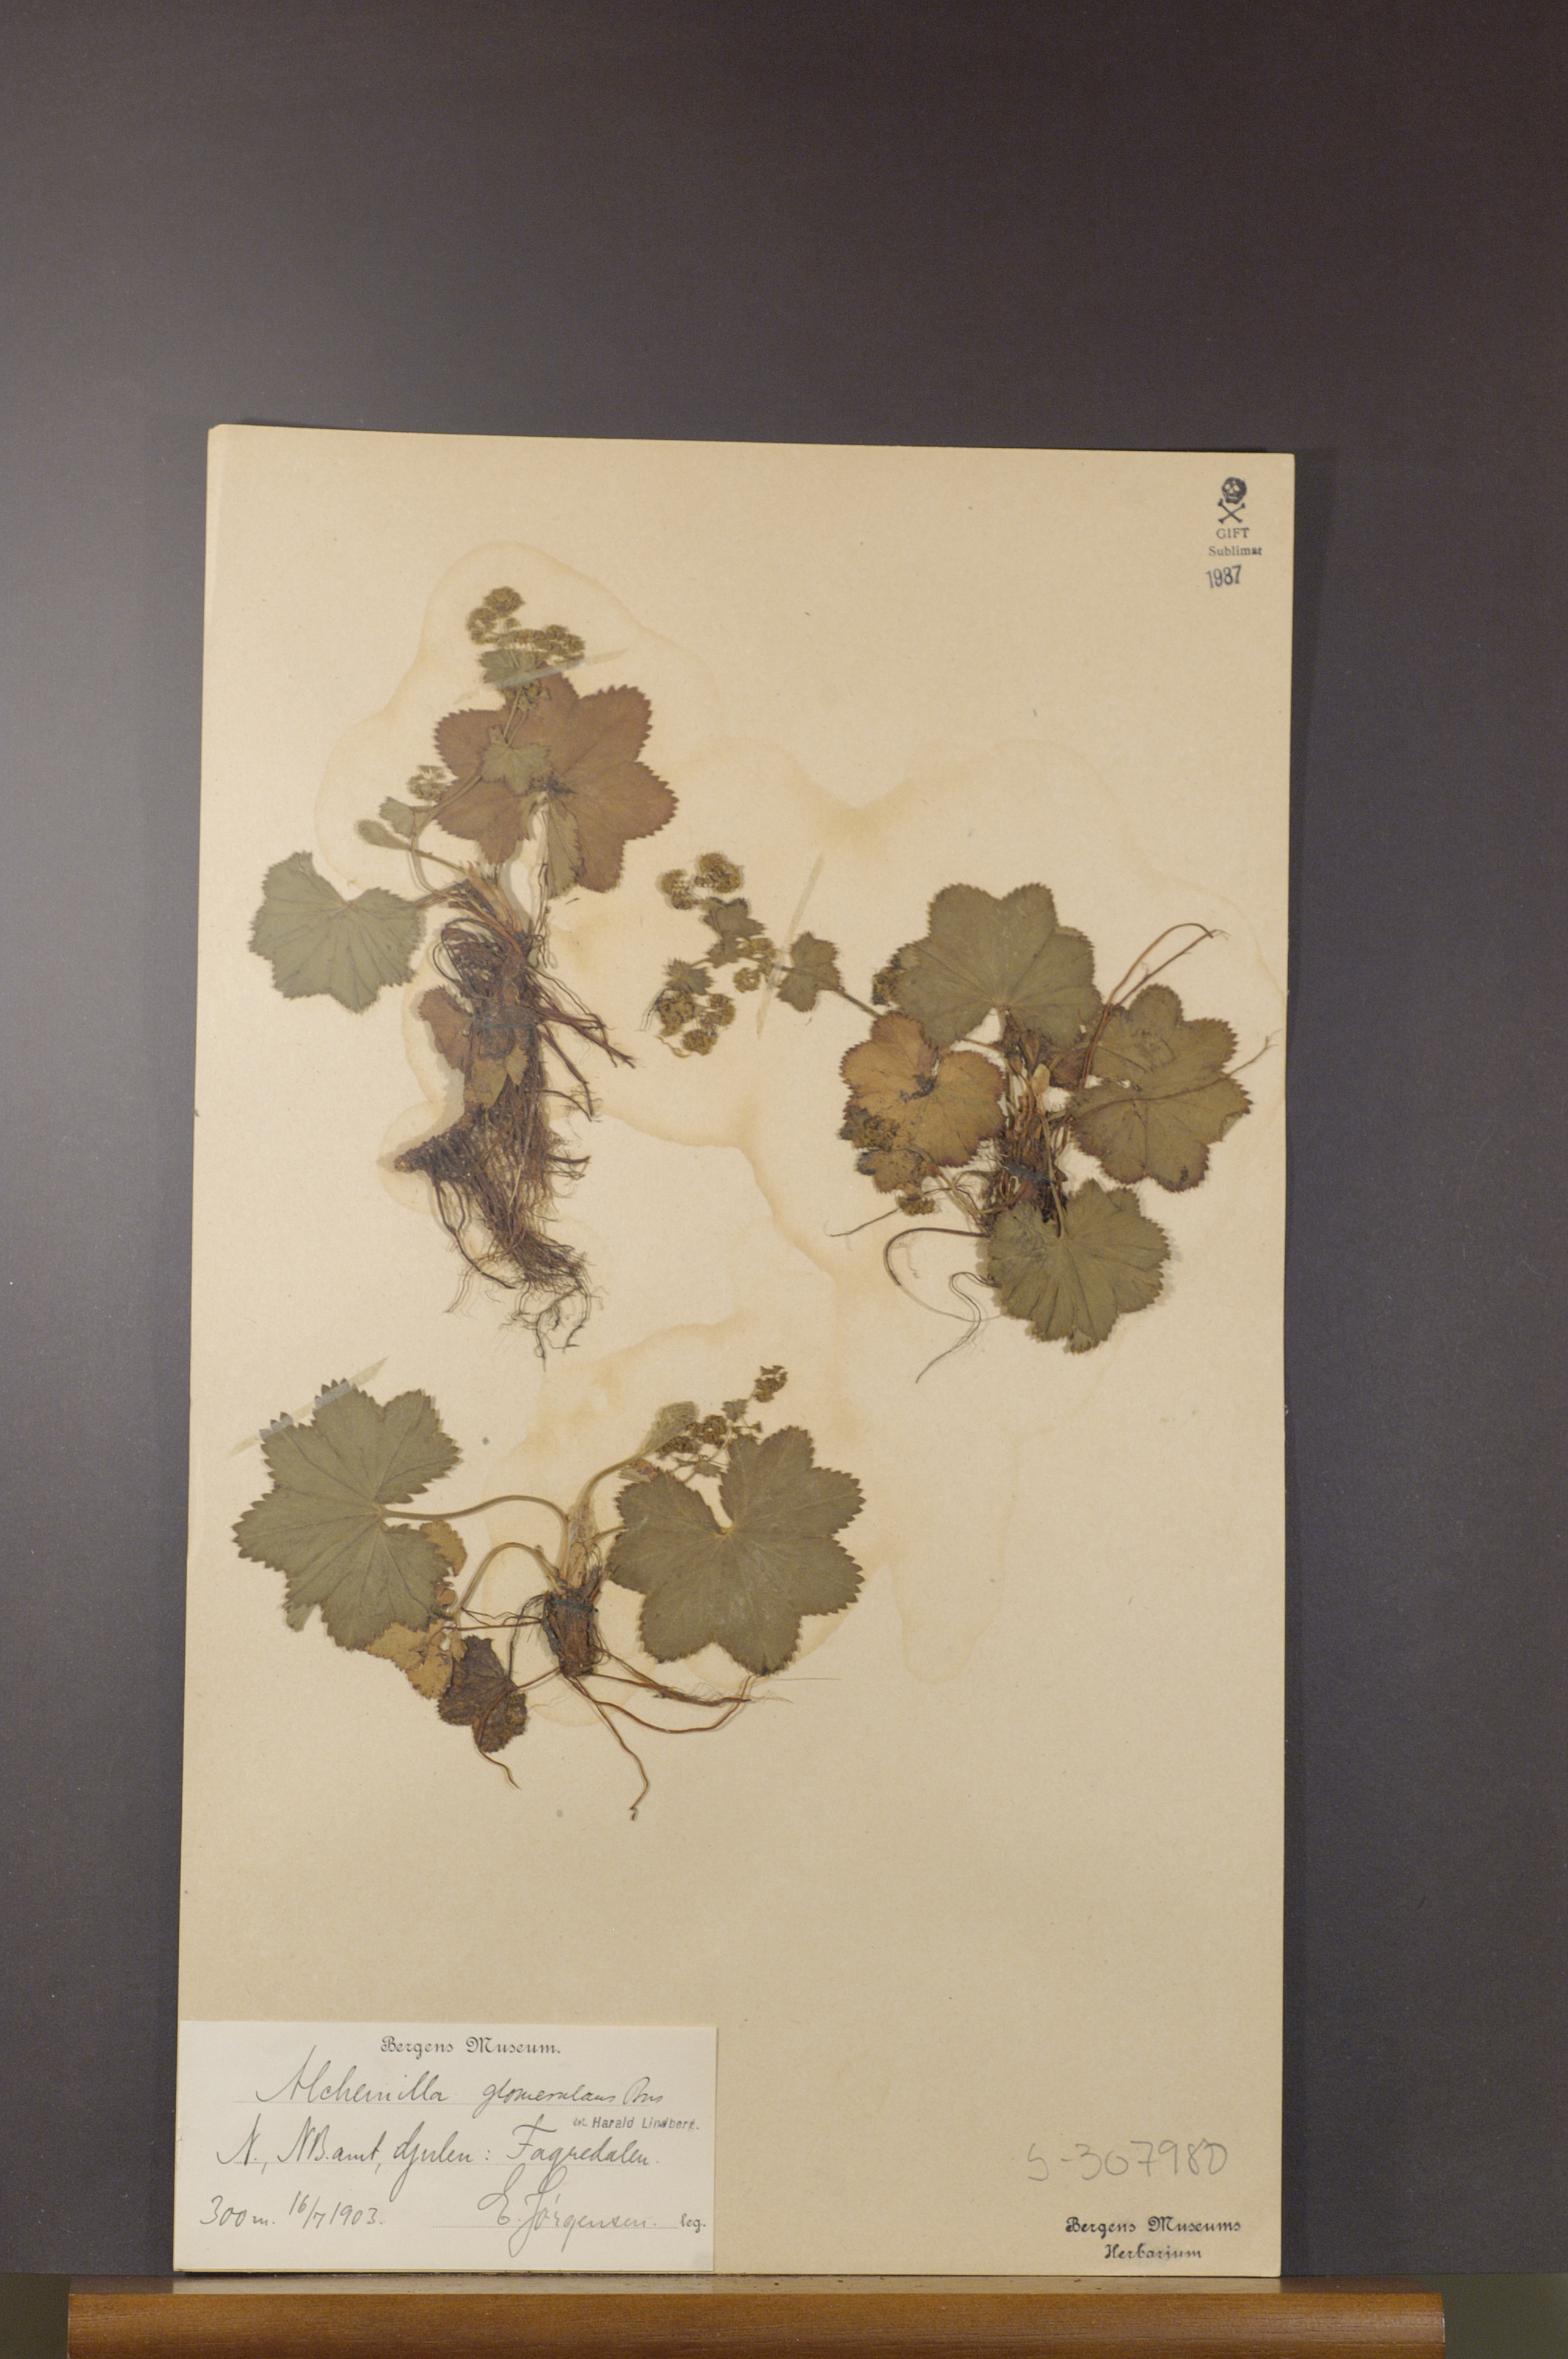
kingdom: Plantae
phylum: Tracheophyta
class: Magnoliopsida
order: Rosales
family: Rosaceae
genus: Alchemilla
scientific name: Alchemilla glomerulans
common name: Clustered lady's mantle
